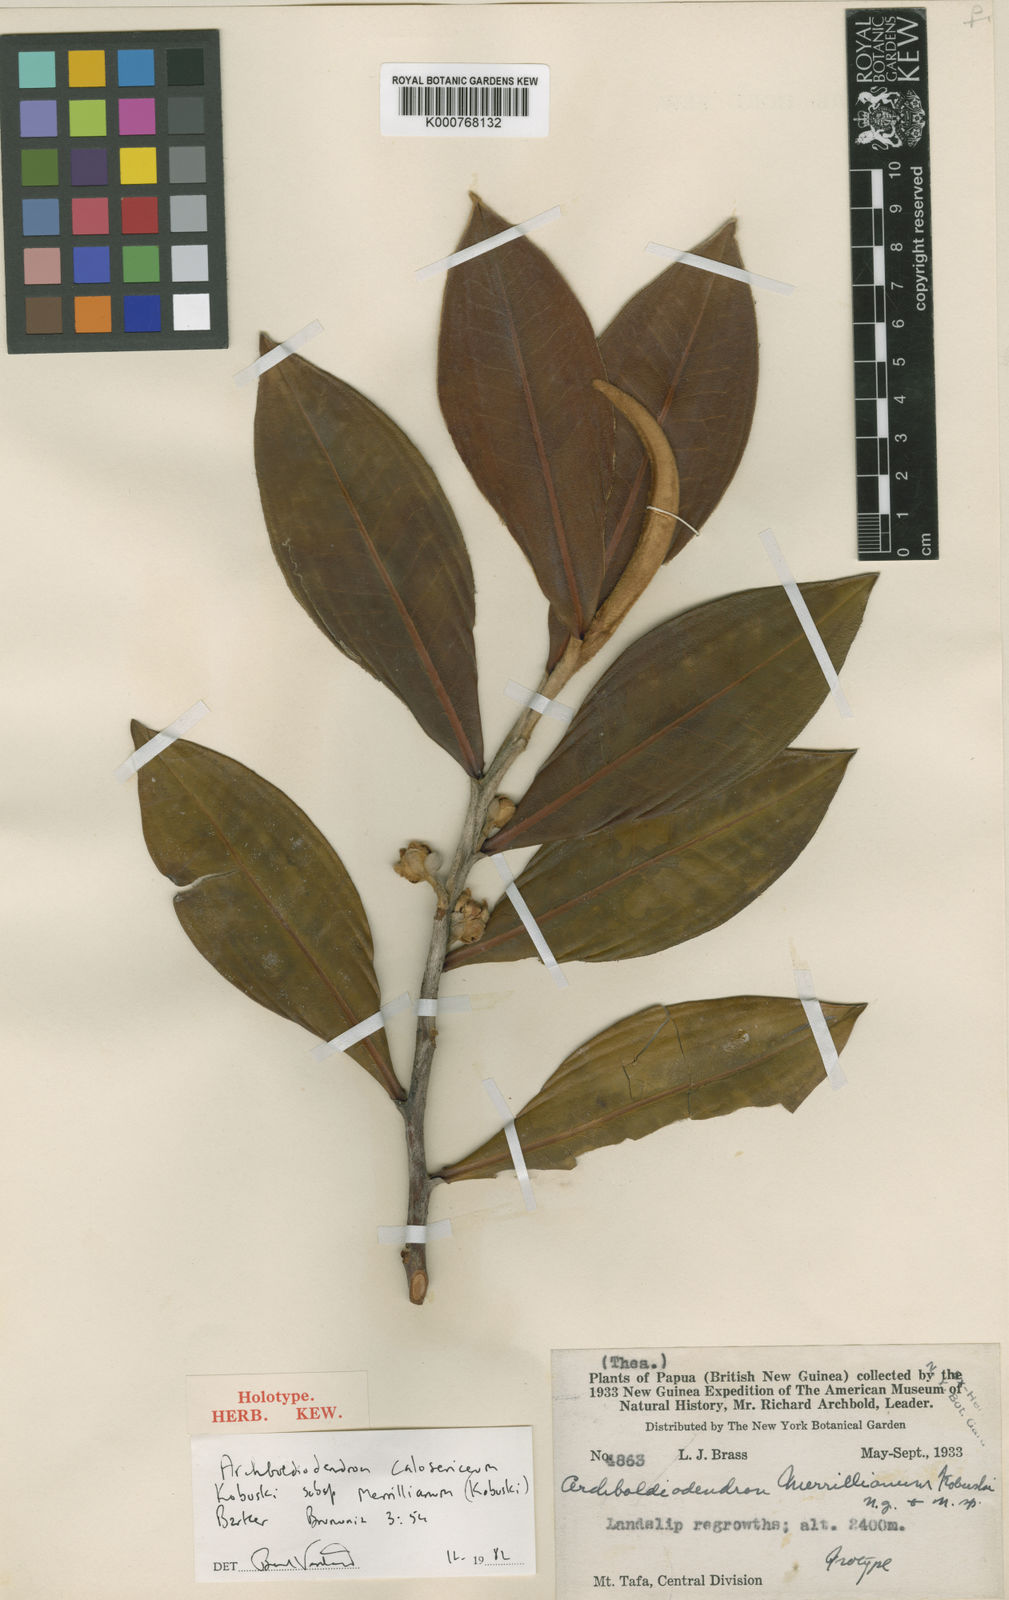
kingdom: Plantae
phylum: Tracheophyta
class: Magnoliopsida
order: Ericales
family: Pentaphylacaceae
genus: Archboldiodendron
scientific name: Archboldiodendron calosericeum
